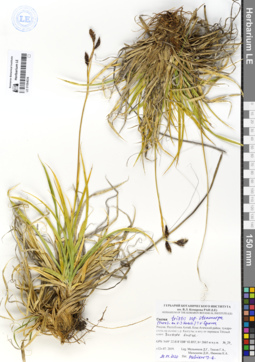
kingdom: Plantae
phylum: Tracheophyta
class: Liliopsida
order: Poales
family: Cyperaceae
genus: Carex
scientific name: Carex stenocarpa
